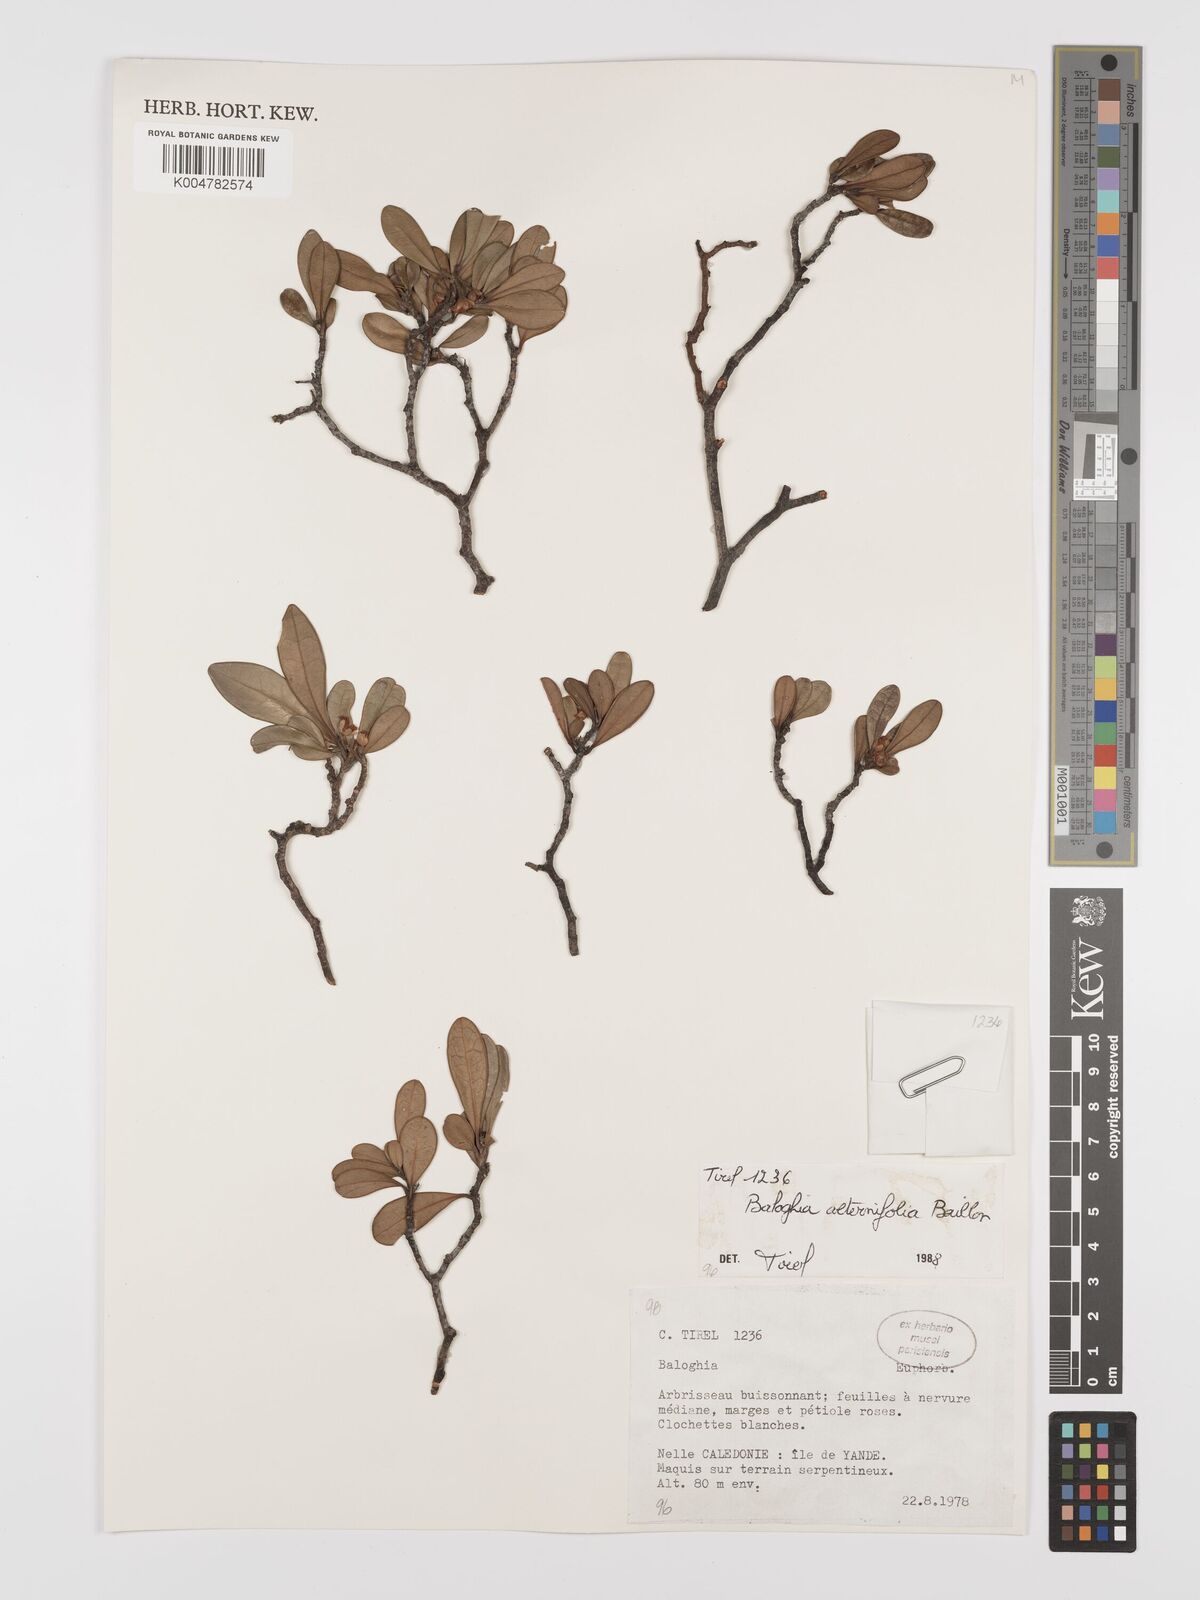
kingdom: Plantae
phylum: Tracheophyta
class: Magnoliopsida
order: Malpighiales
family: Euphorbiaceae
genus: Baloghia
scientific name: Baloghia alternifolia
